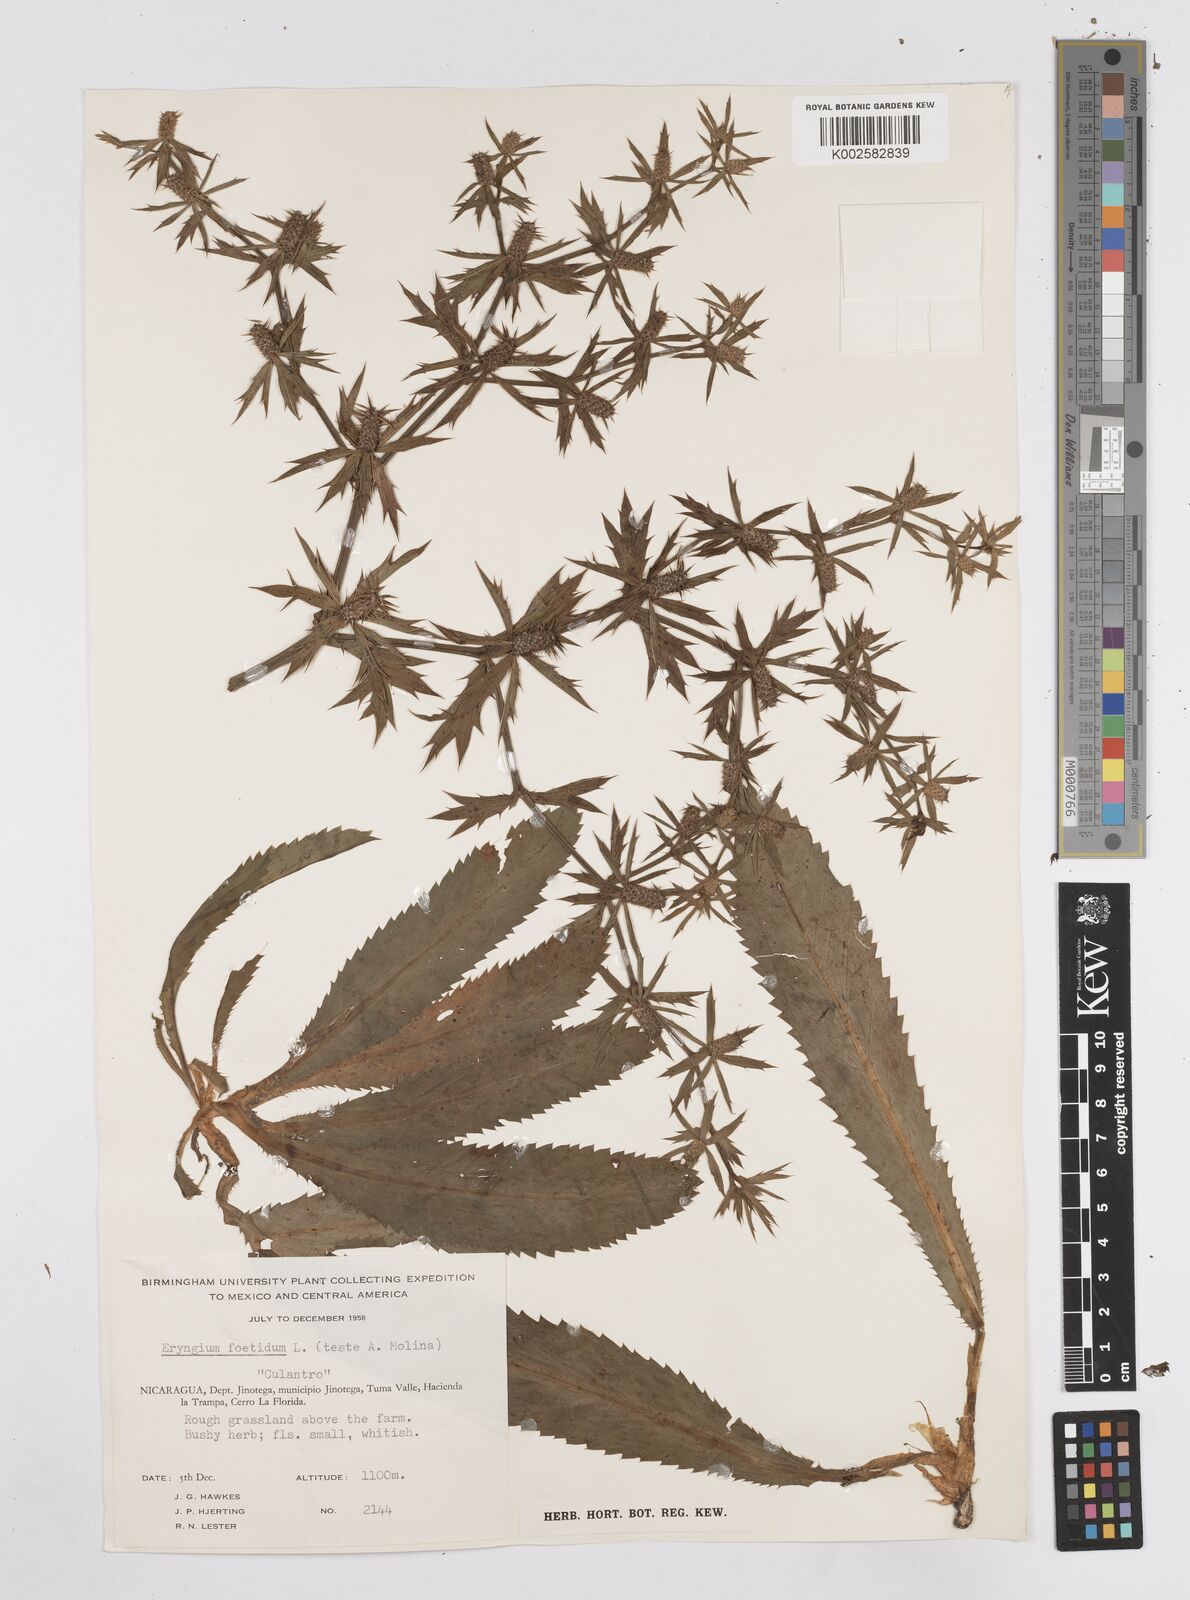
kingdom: Plantae
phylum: Tracheophyta
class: Magnoliopsida
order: Apiales
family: Apiaceae
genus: Eryngium
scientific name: Eryngium foetidum
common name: Fitweed
